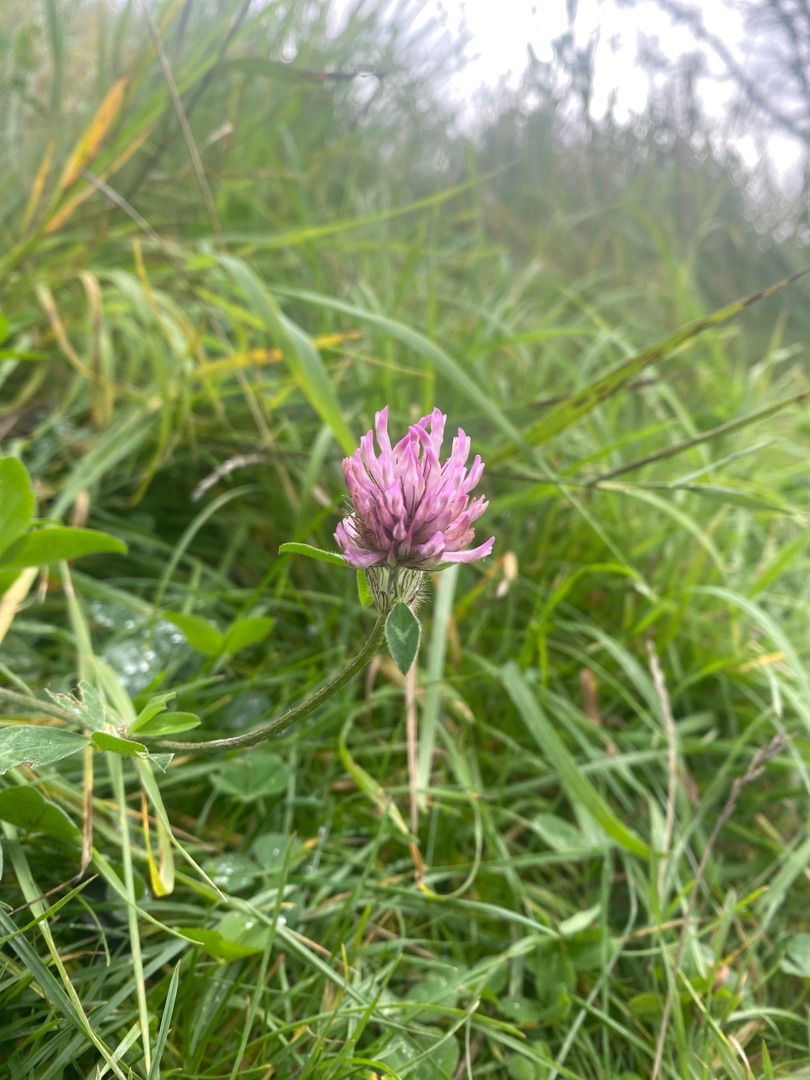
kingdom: Plantae
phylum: Tracheophyta
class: Magnoliopsida
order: Fabales
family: Fabaceae
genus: Trifolium
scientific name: Trifolium pratense
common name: Rød-kløver
